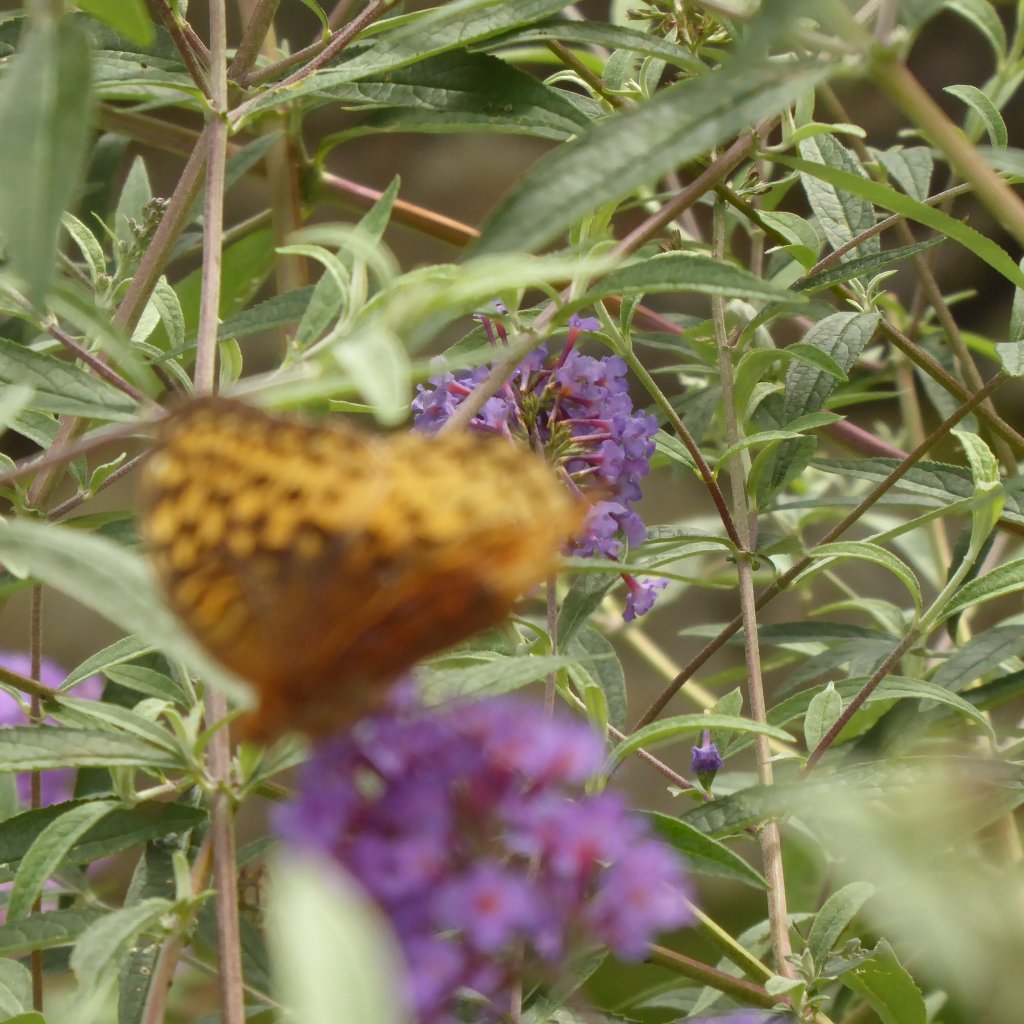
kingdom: Animalia
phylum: Arthropoda
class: Insecta
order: Lepidoptera
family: Nymphalidae
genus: Speyeria
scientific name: Speyeria cybele
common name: Great Spangled Fritillary
